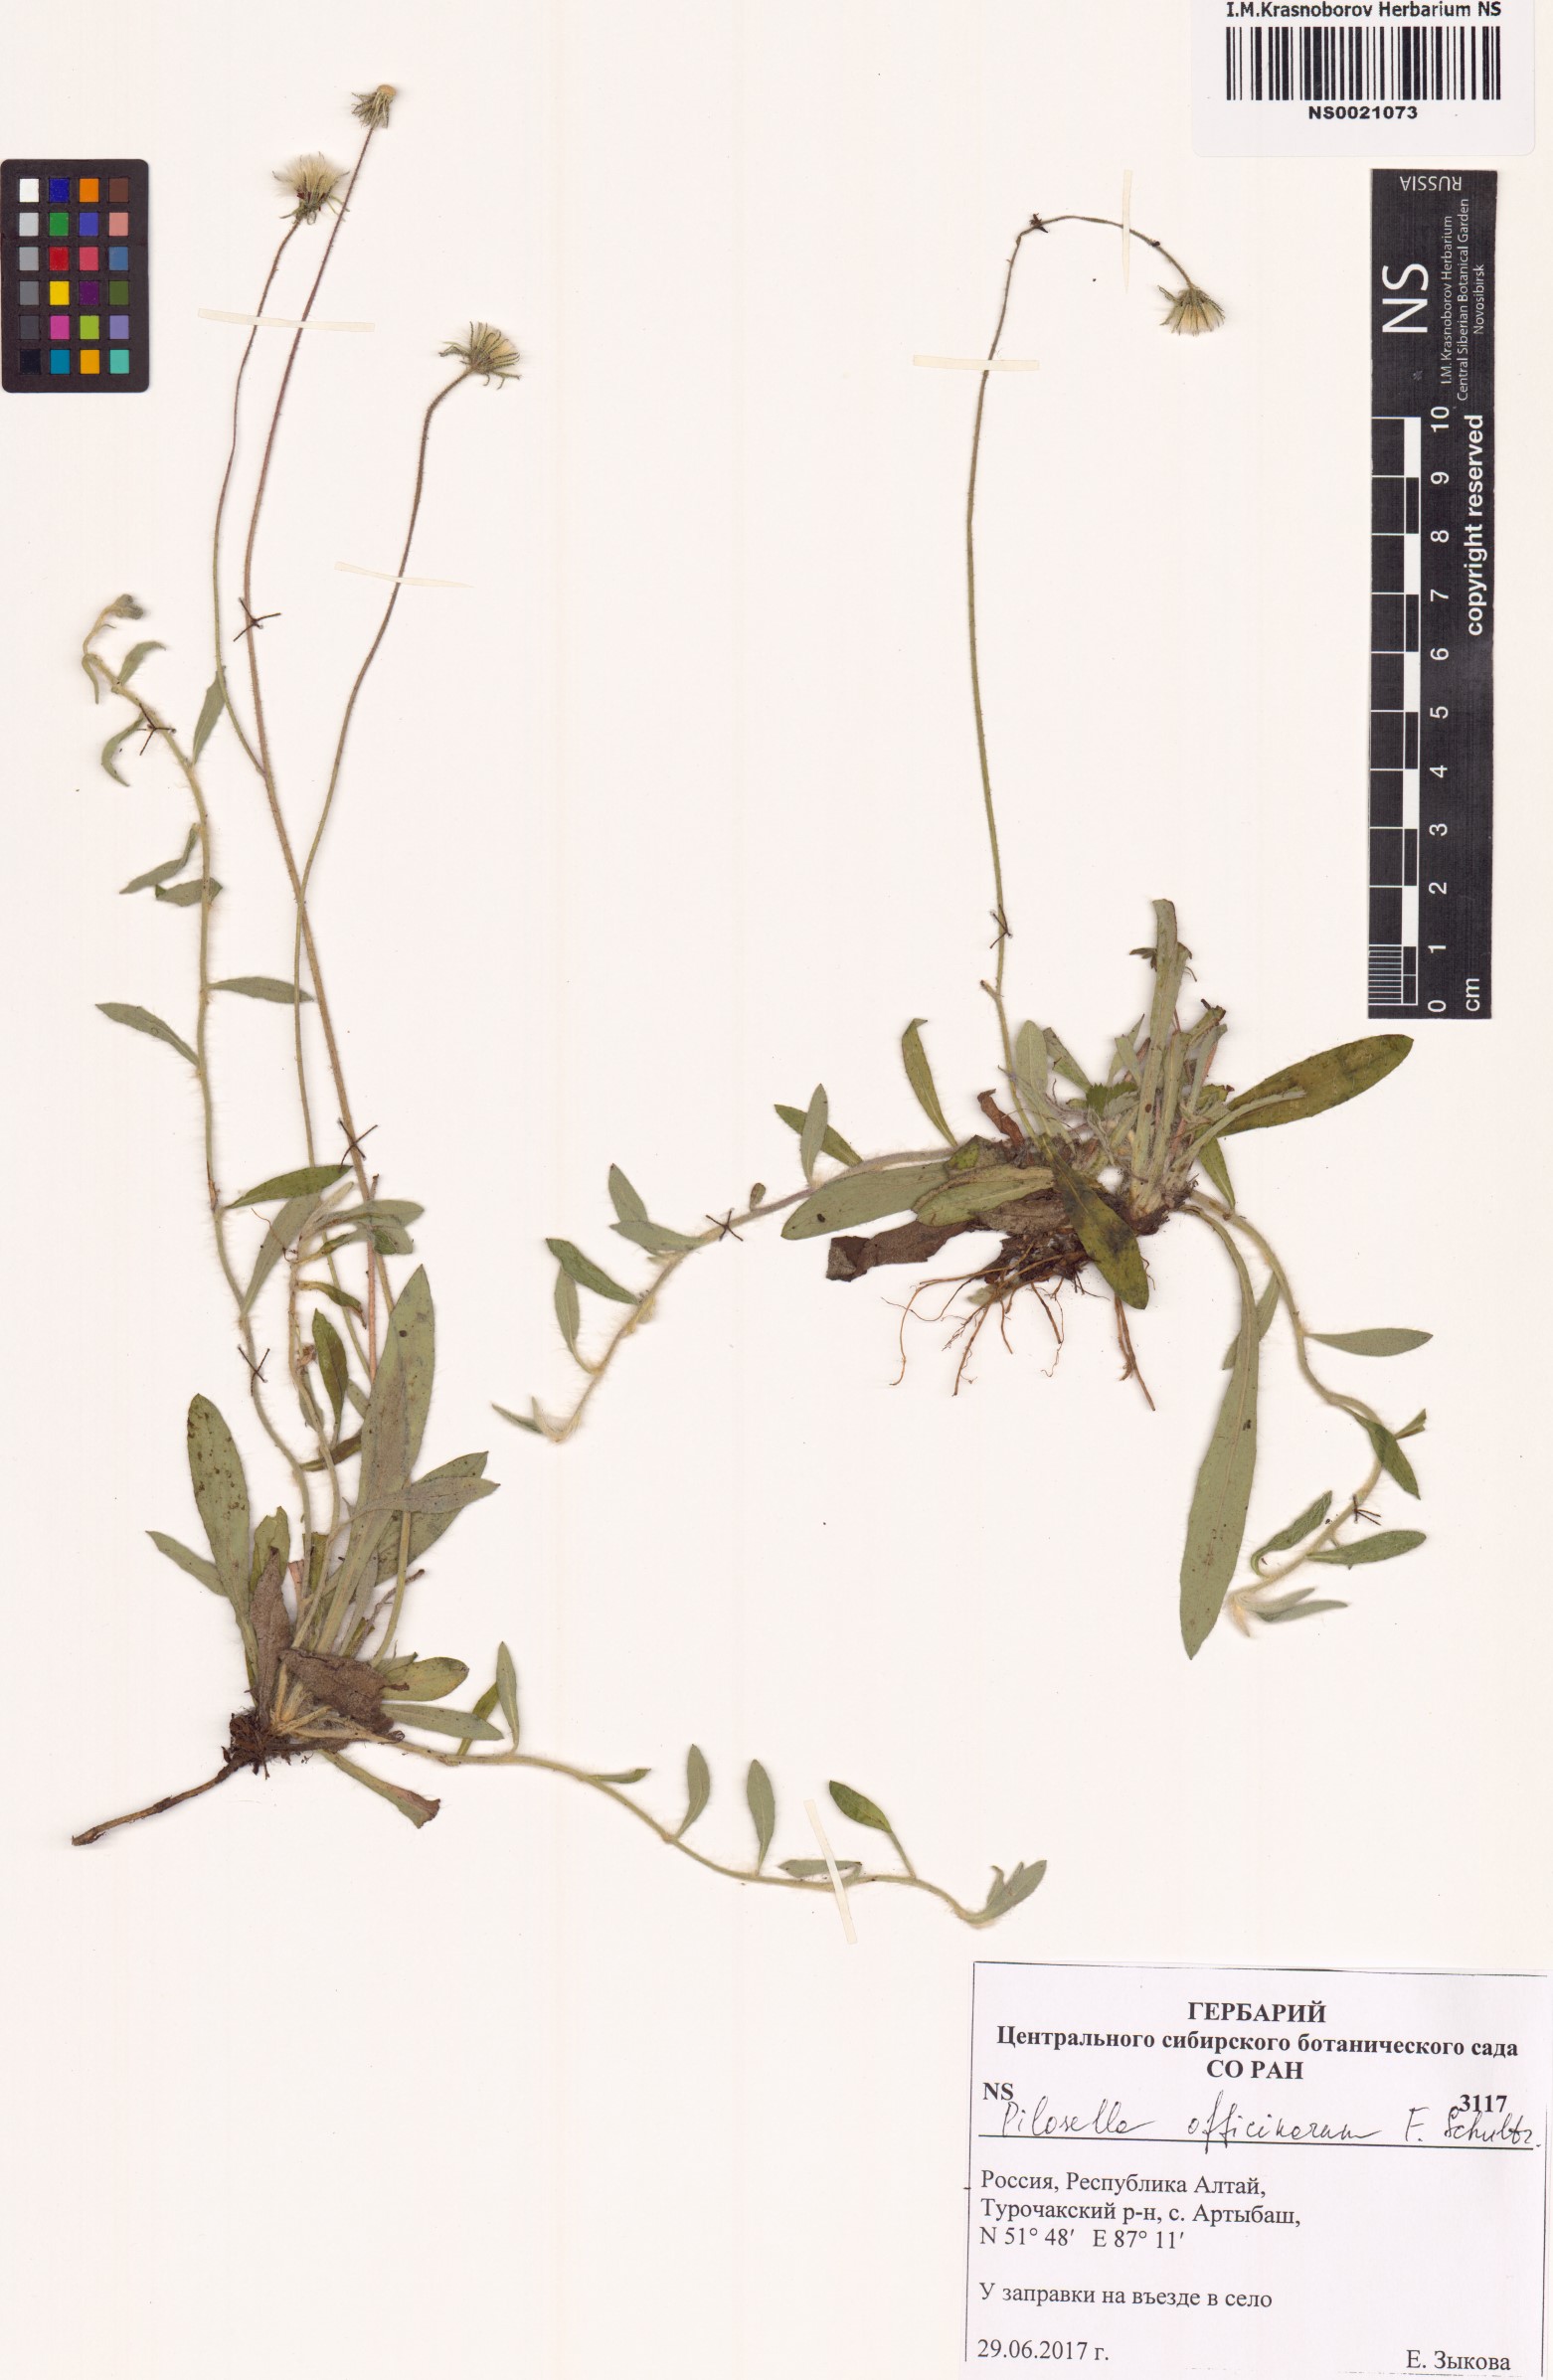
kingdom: Plantae
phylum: Tracheophyta
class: Magnoliopsida
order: Asterales
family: Asteraceae
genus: Pilosella
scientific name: Pilosella officinarum
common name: Mouse-ear hawkweed
